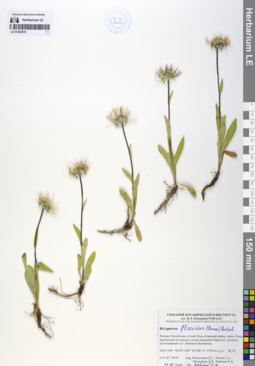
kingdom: Plantae
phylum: Tracheophyta
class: Magnoliopsida
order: Asterales
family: Asteraceae
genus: Tibetiodes
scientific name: Tibetiodes flaccida
